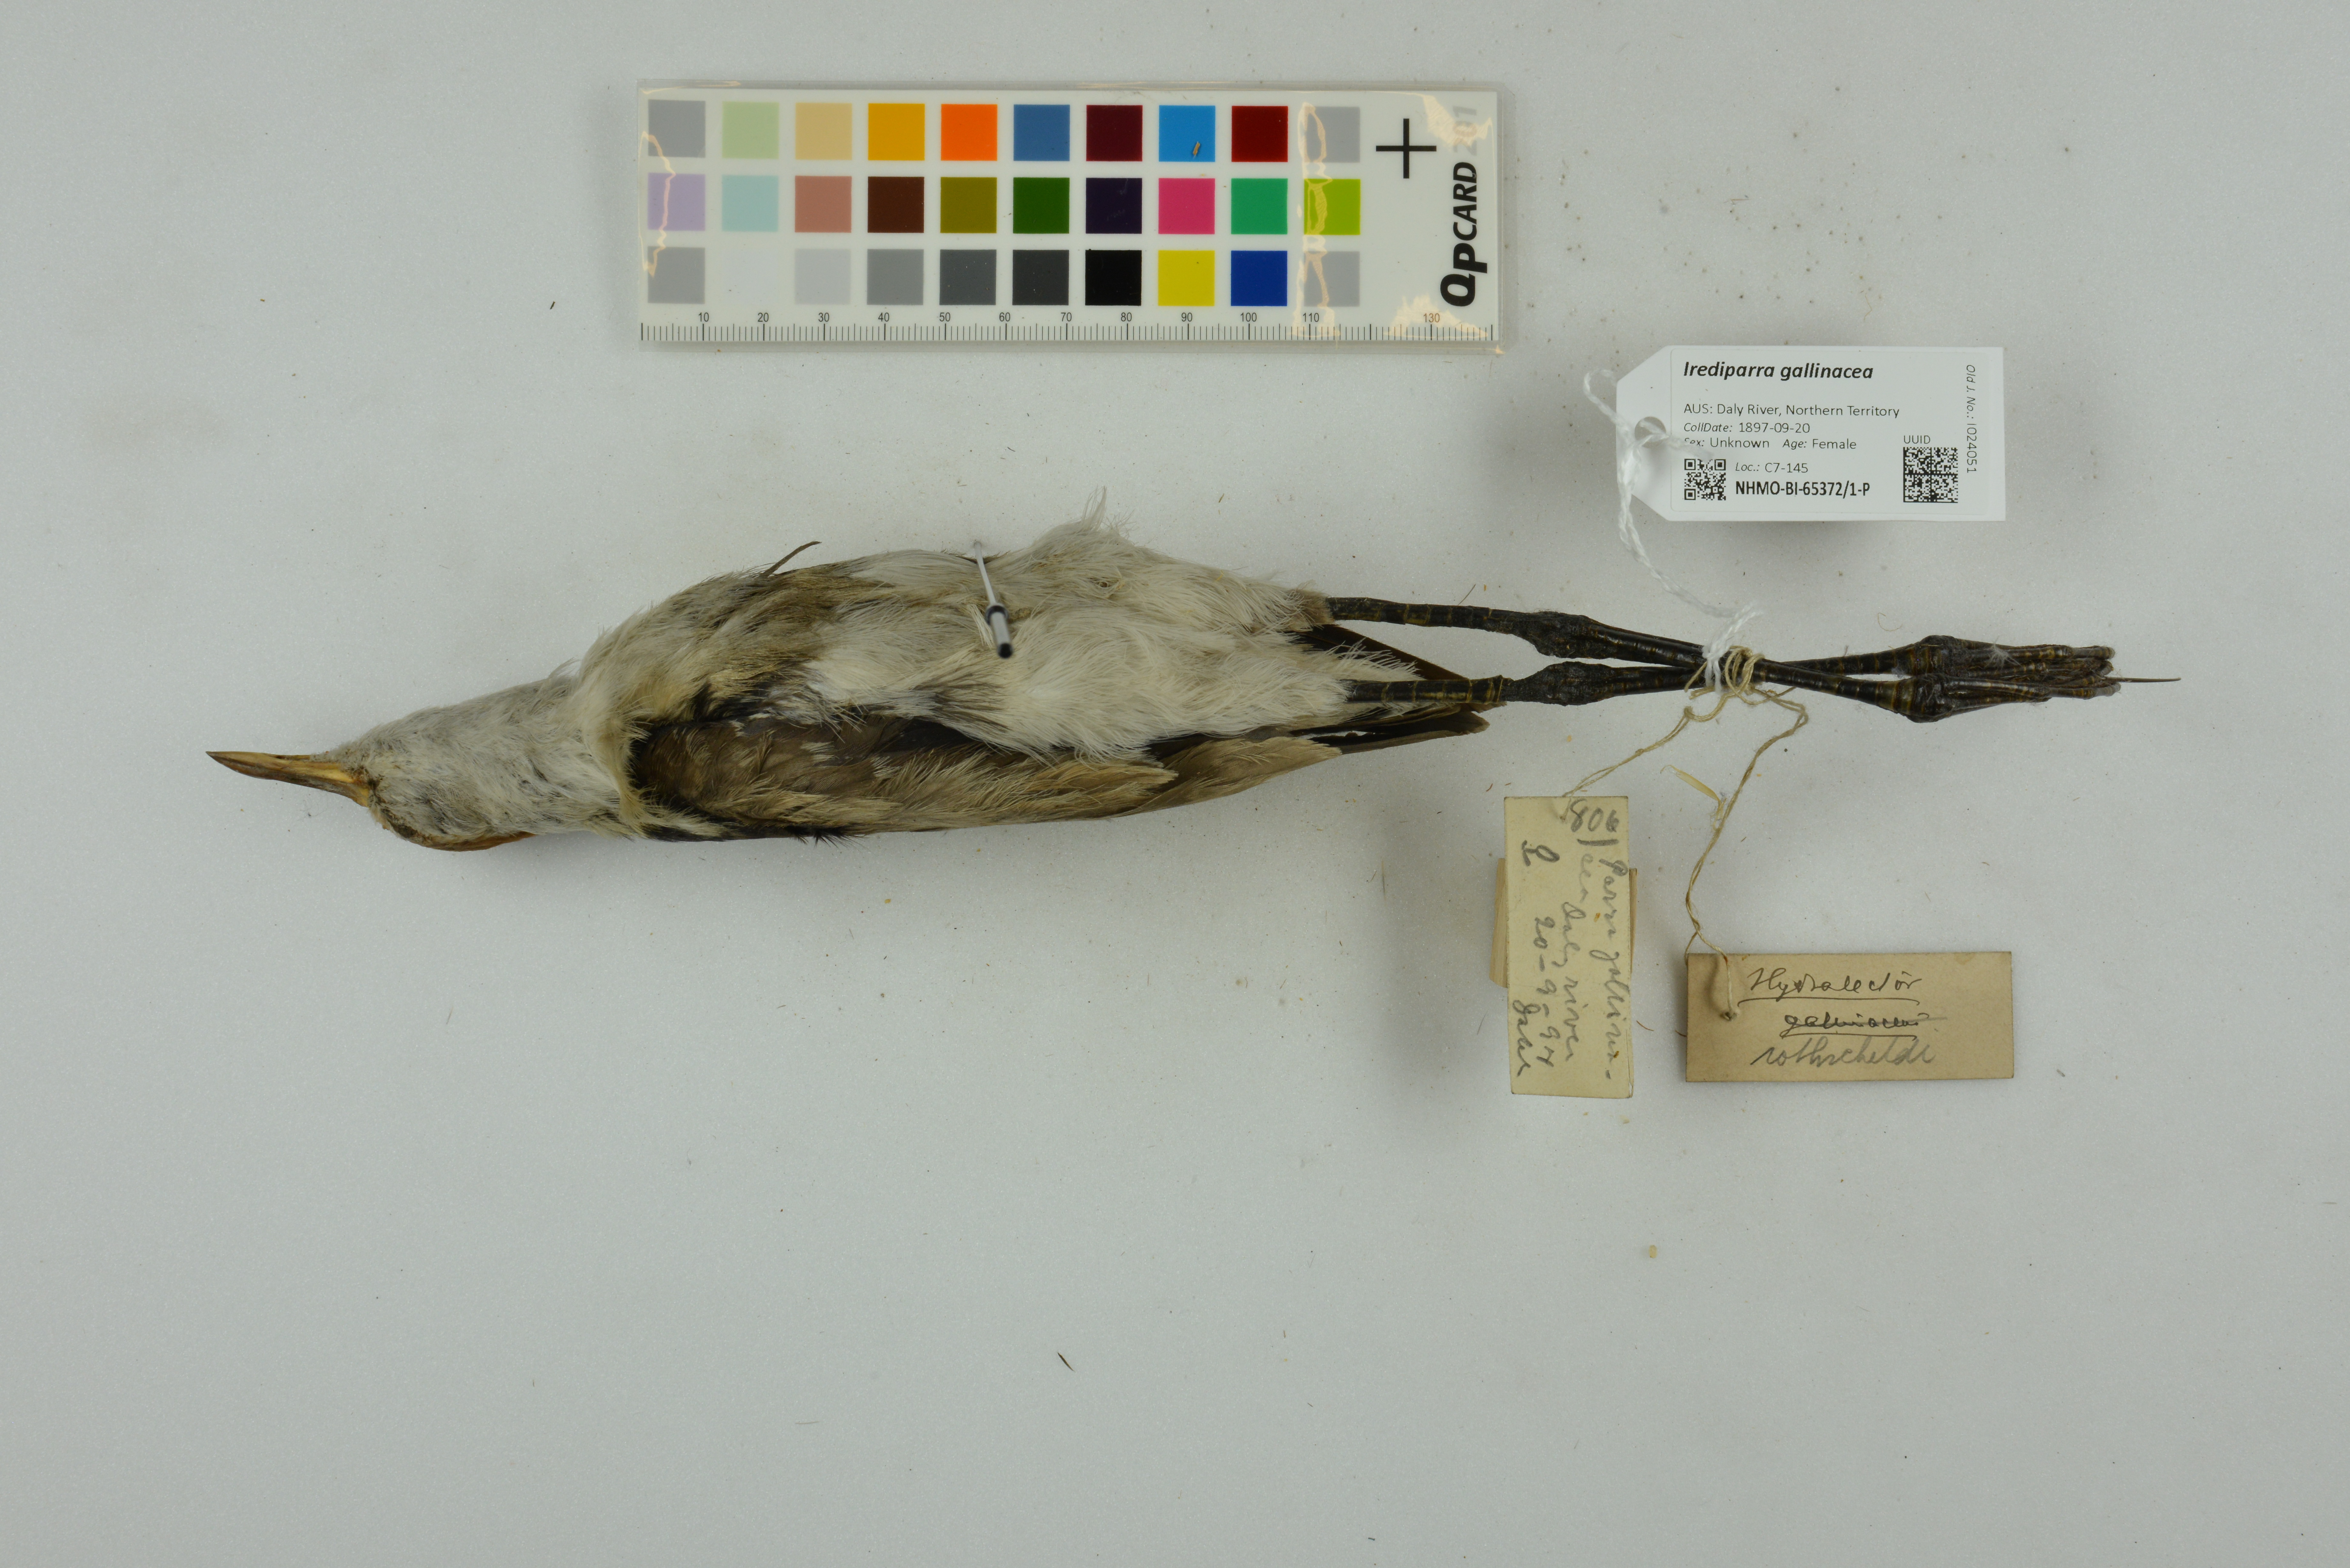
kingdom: Animalia
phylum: Chordata
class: Aves
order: Charadriiformes
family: Jacanidae
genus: Irediparra
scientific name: Irediparra gallinacea
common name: Comb-crested jacana
